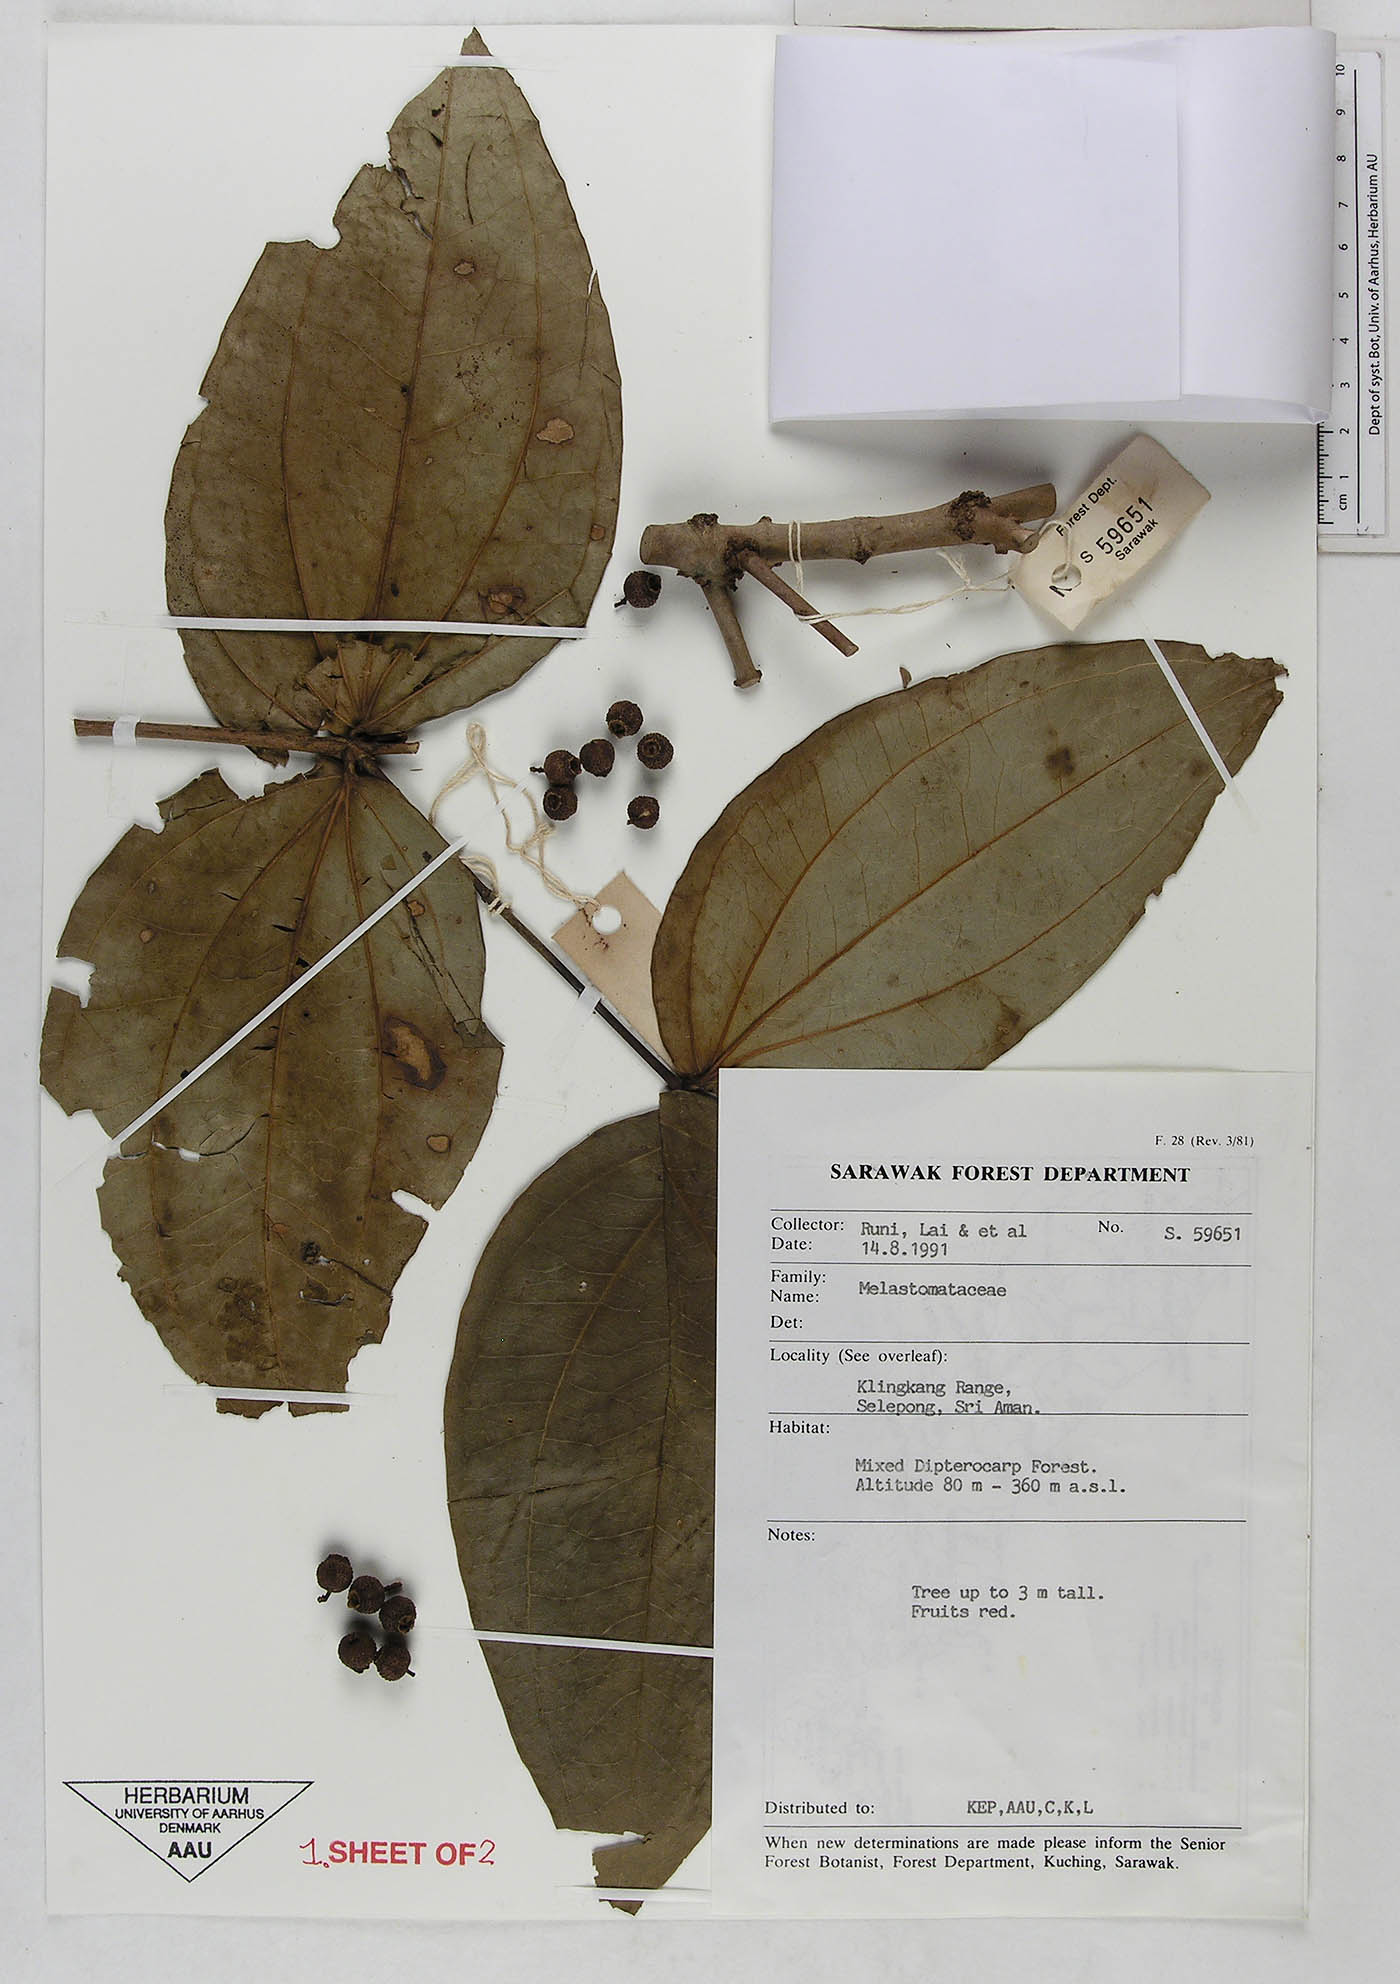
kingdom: Plantae
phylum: Tracheophyta
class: Magnoliopsida
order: Myrtales
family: Melastomataceae
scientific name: Melastomataceae
